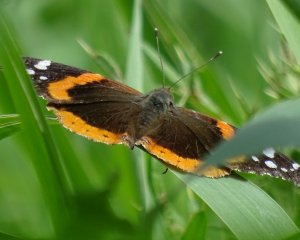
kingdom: Animalia
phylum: Arthropoda
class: Insecta
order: Lepidoptera
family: Nymphalidae
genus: Vanessa
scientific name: Vanessa atalanta
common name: Red Admiral
